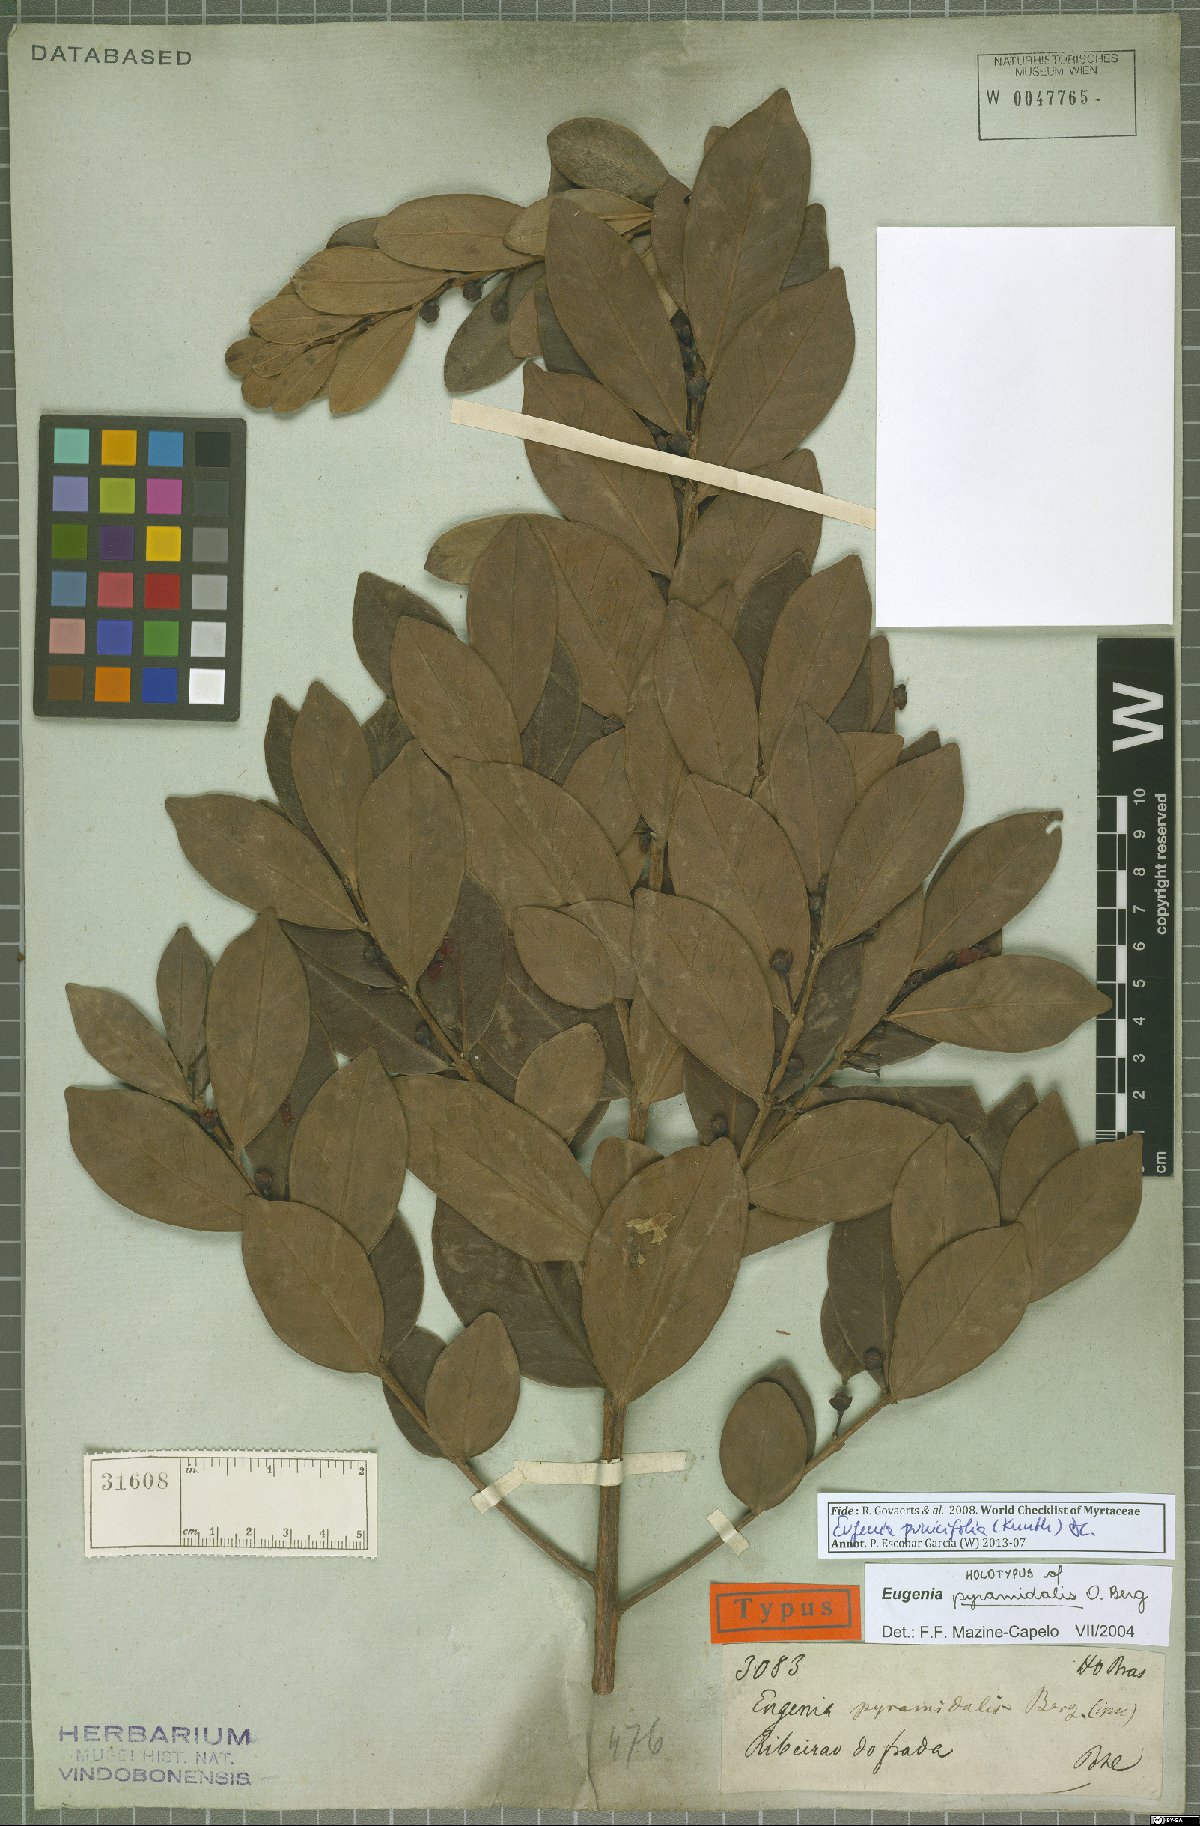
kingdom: Plantae
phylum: Tracheophyta
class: Magnoliopsida
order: Myrtales
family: Myrtaceae
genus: Eugenia
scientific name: Eugenia punicifolia
